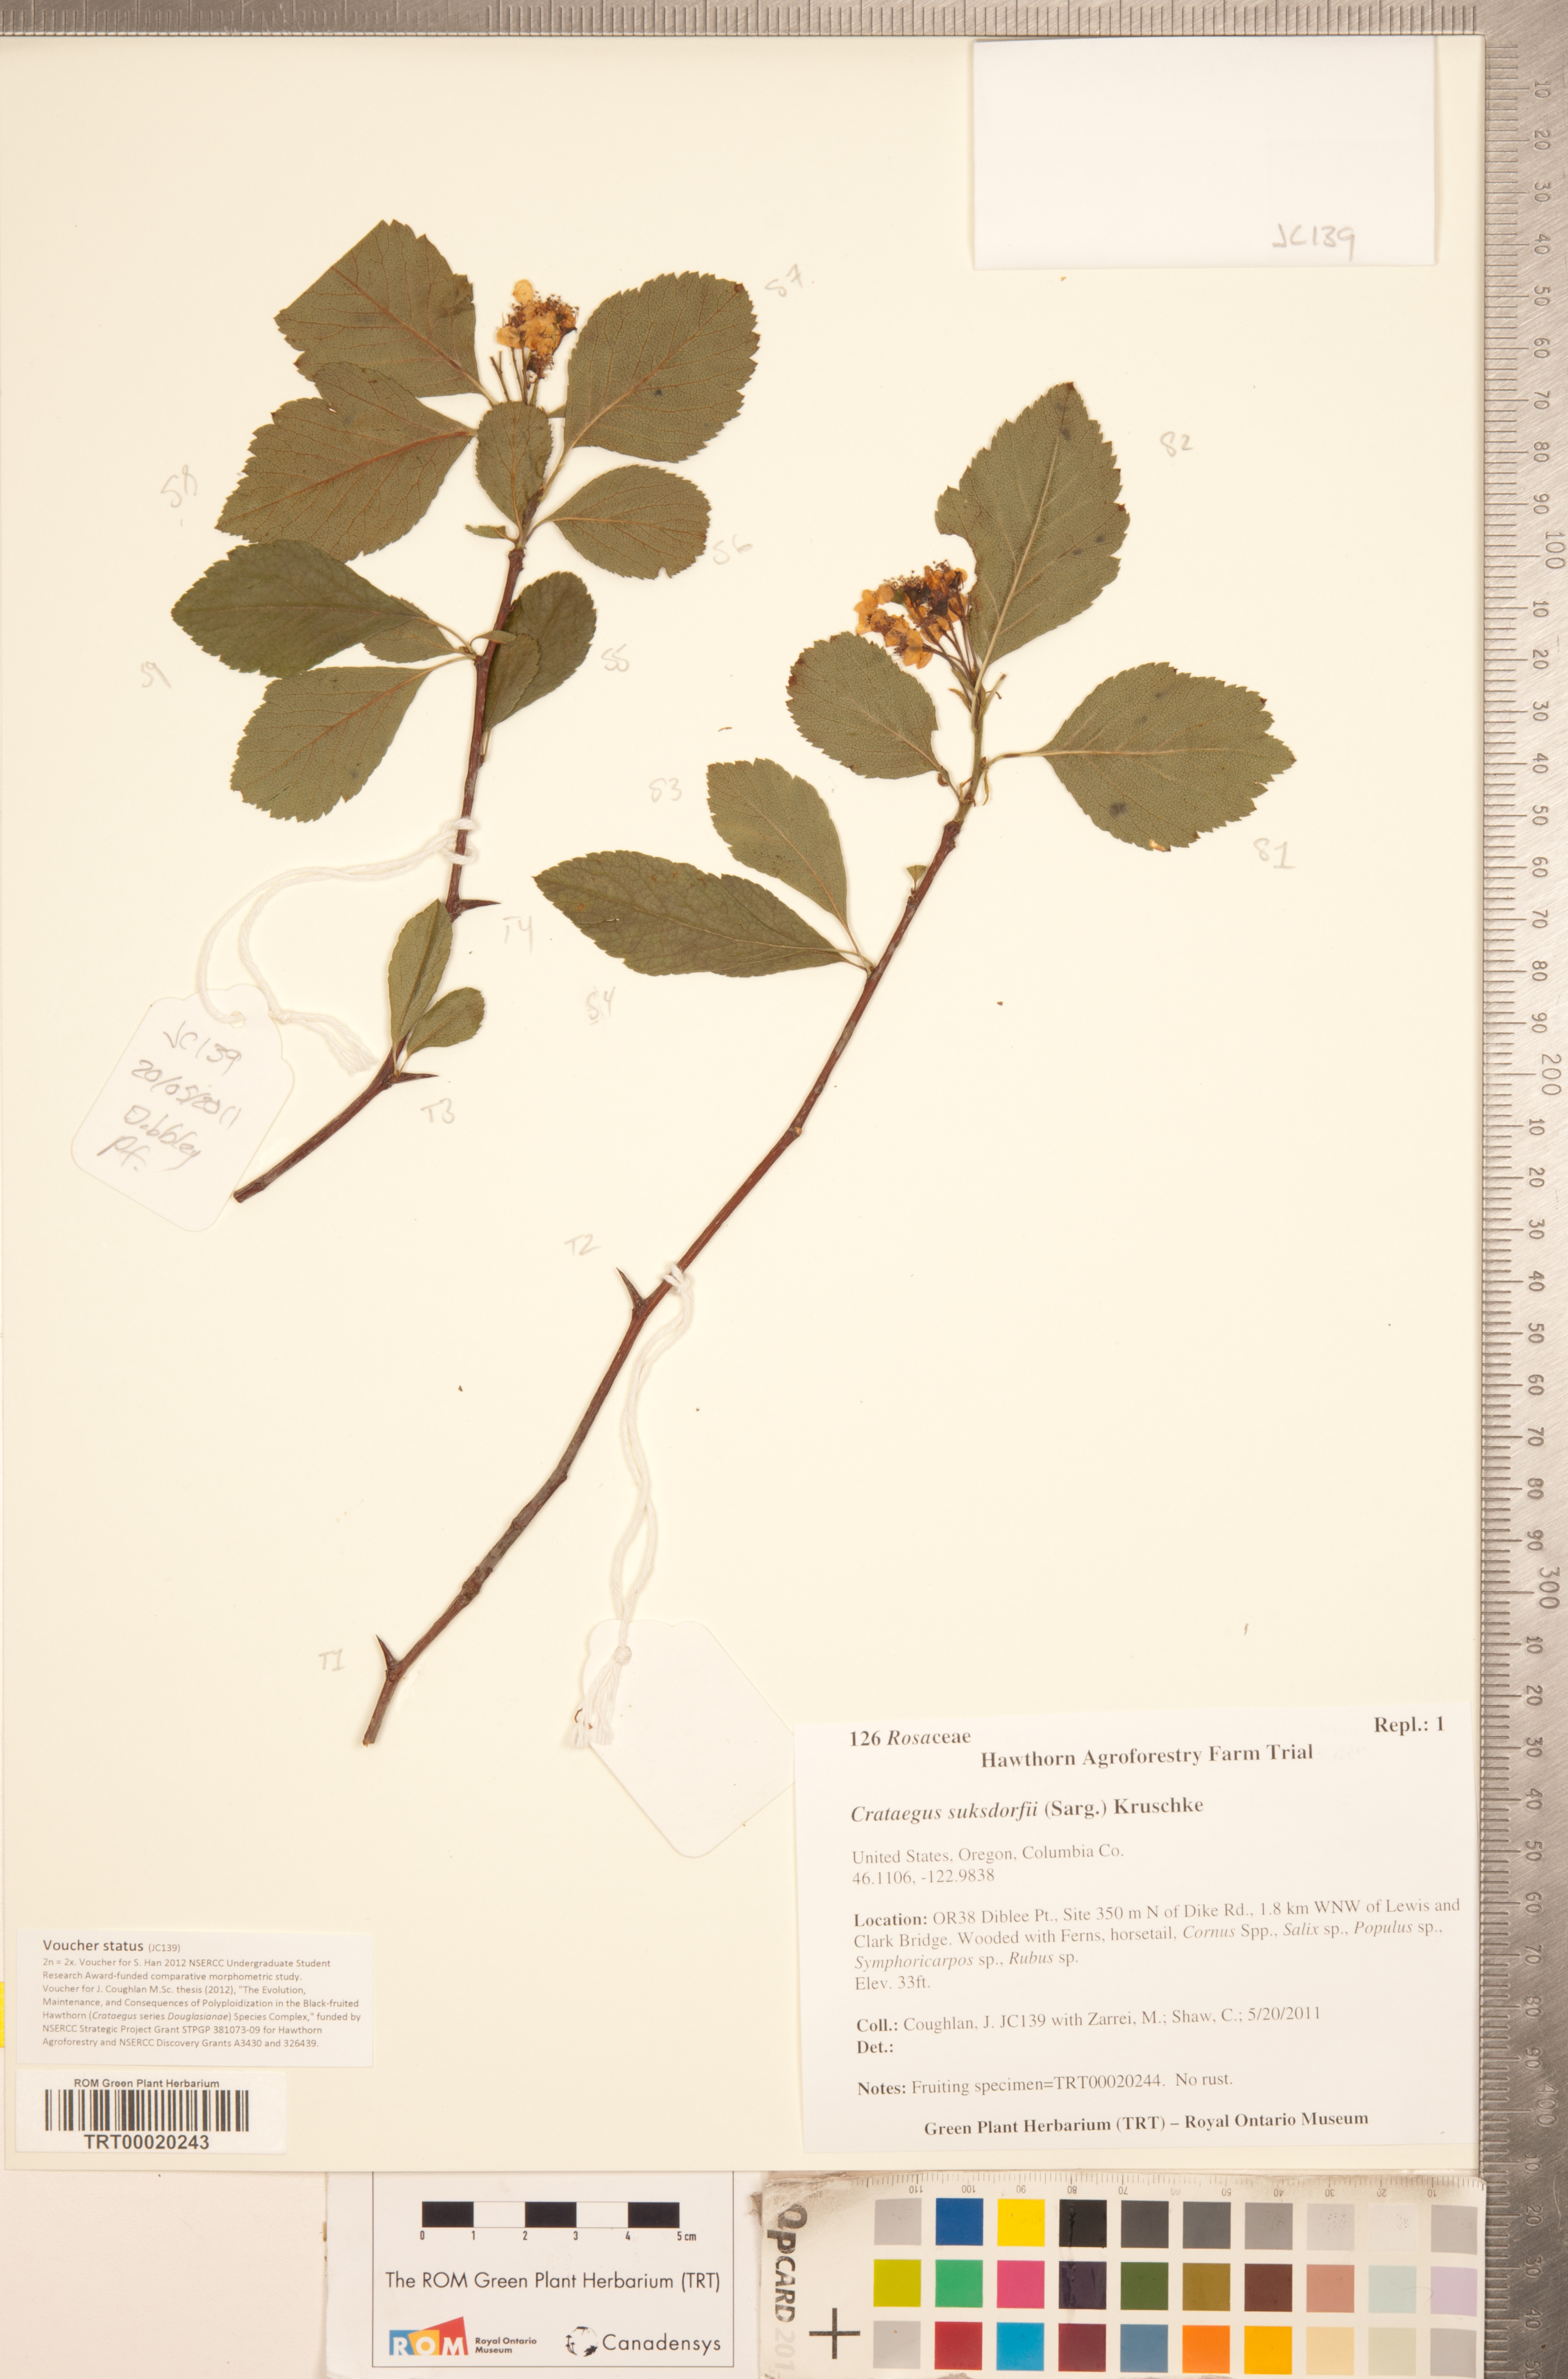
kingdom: Plantae
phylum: Tracheophyta
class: Magnoliopsida
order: Rosales
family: Rosaceae
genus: Crataegus
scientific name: Crataegus gaylussacia
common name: Huckleberry hawthorn
